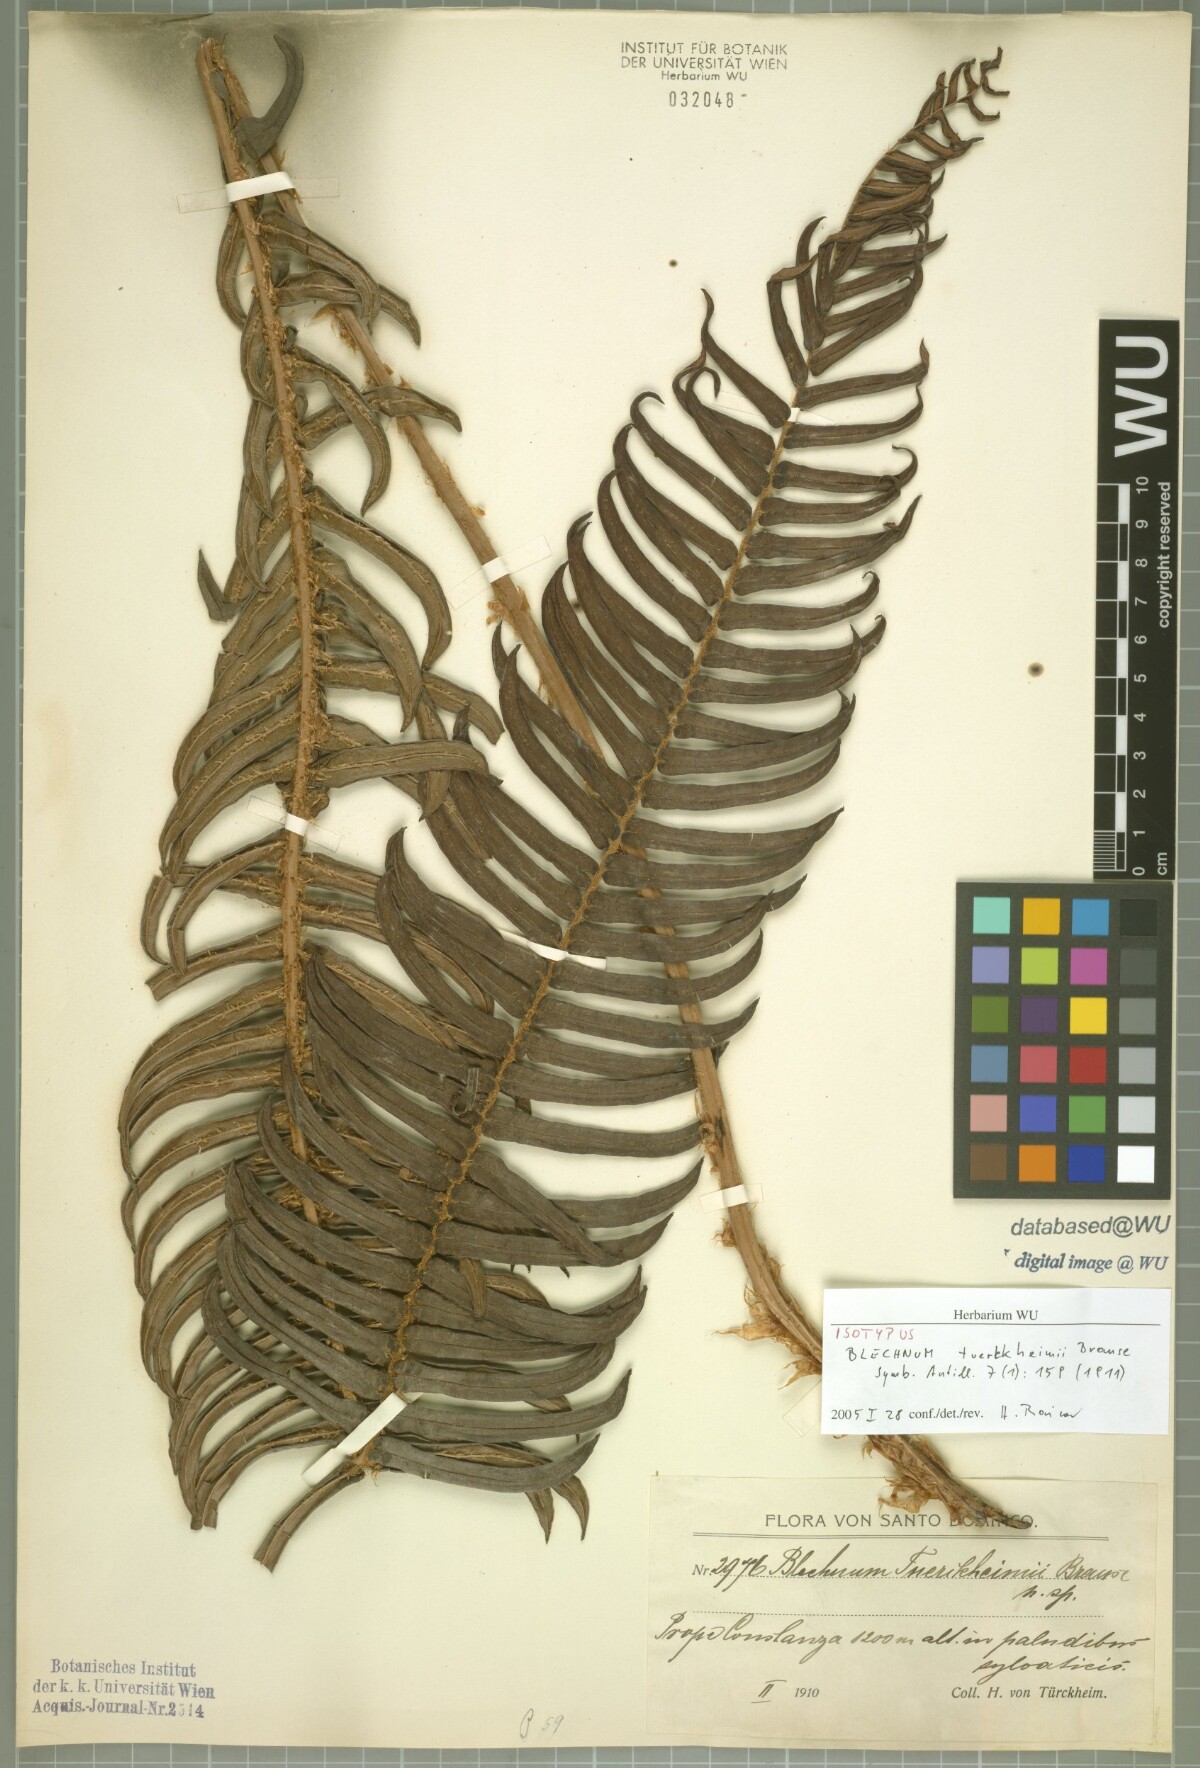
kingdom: Plantae
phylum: Tracheophyta
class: Polypodiopsida
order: Polypodiales
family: Blechnaceae
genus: Parablechnum
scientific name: Parablechnum tuerckheimii
